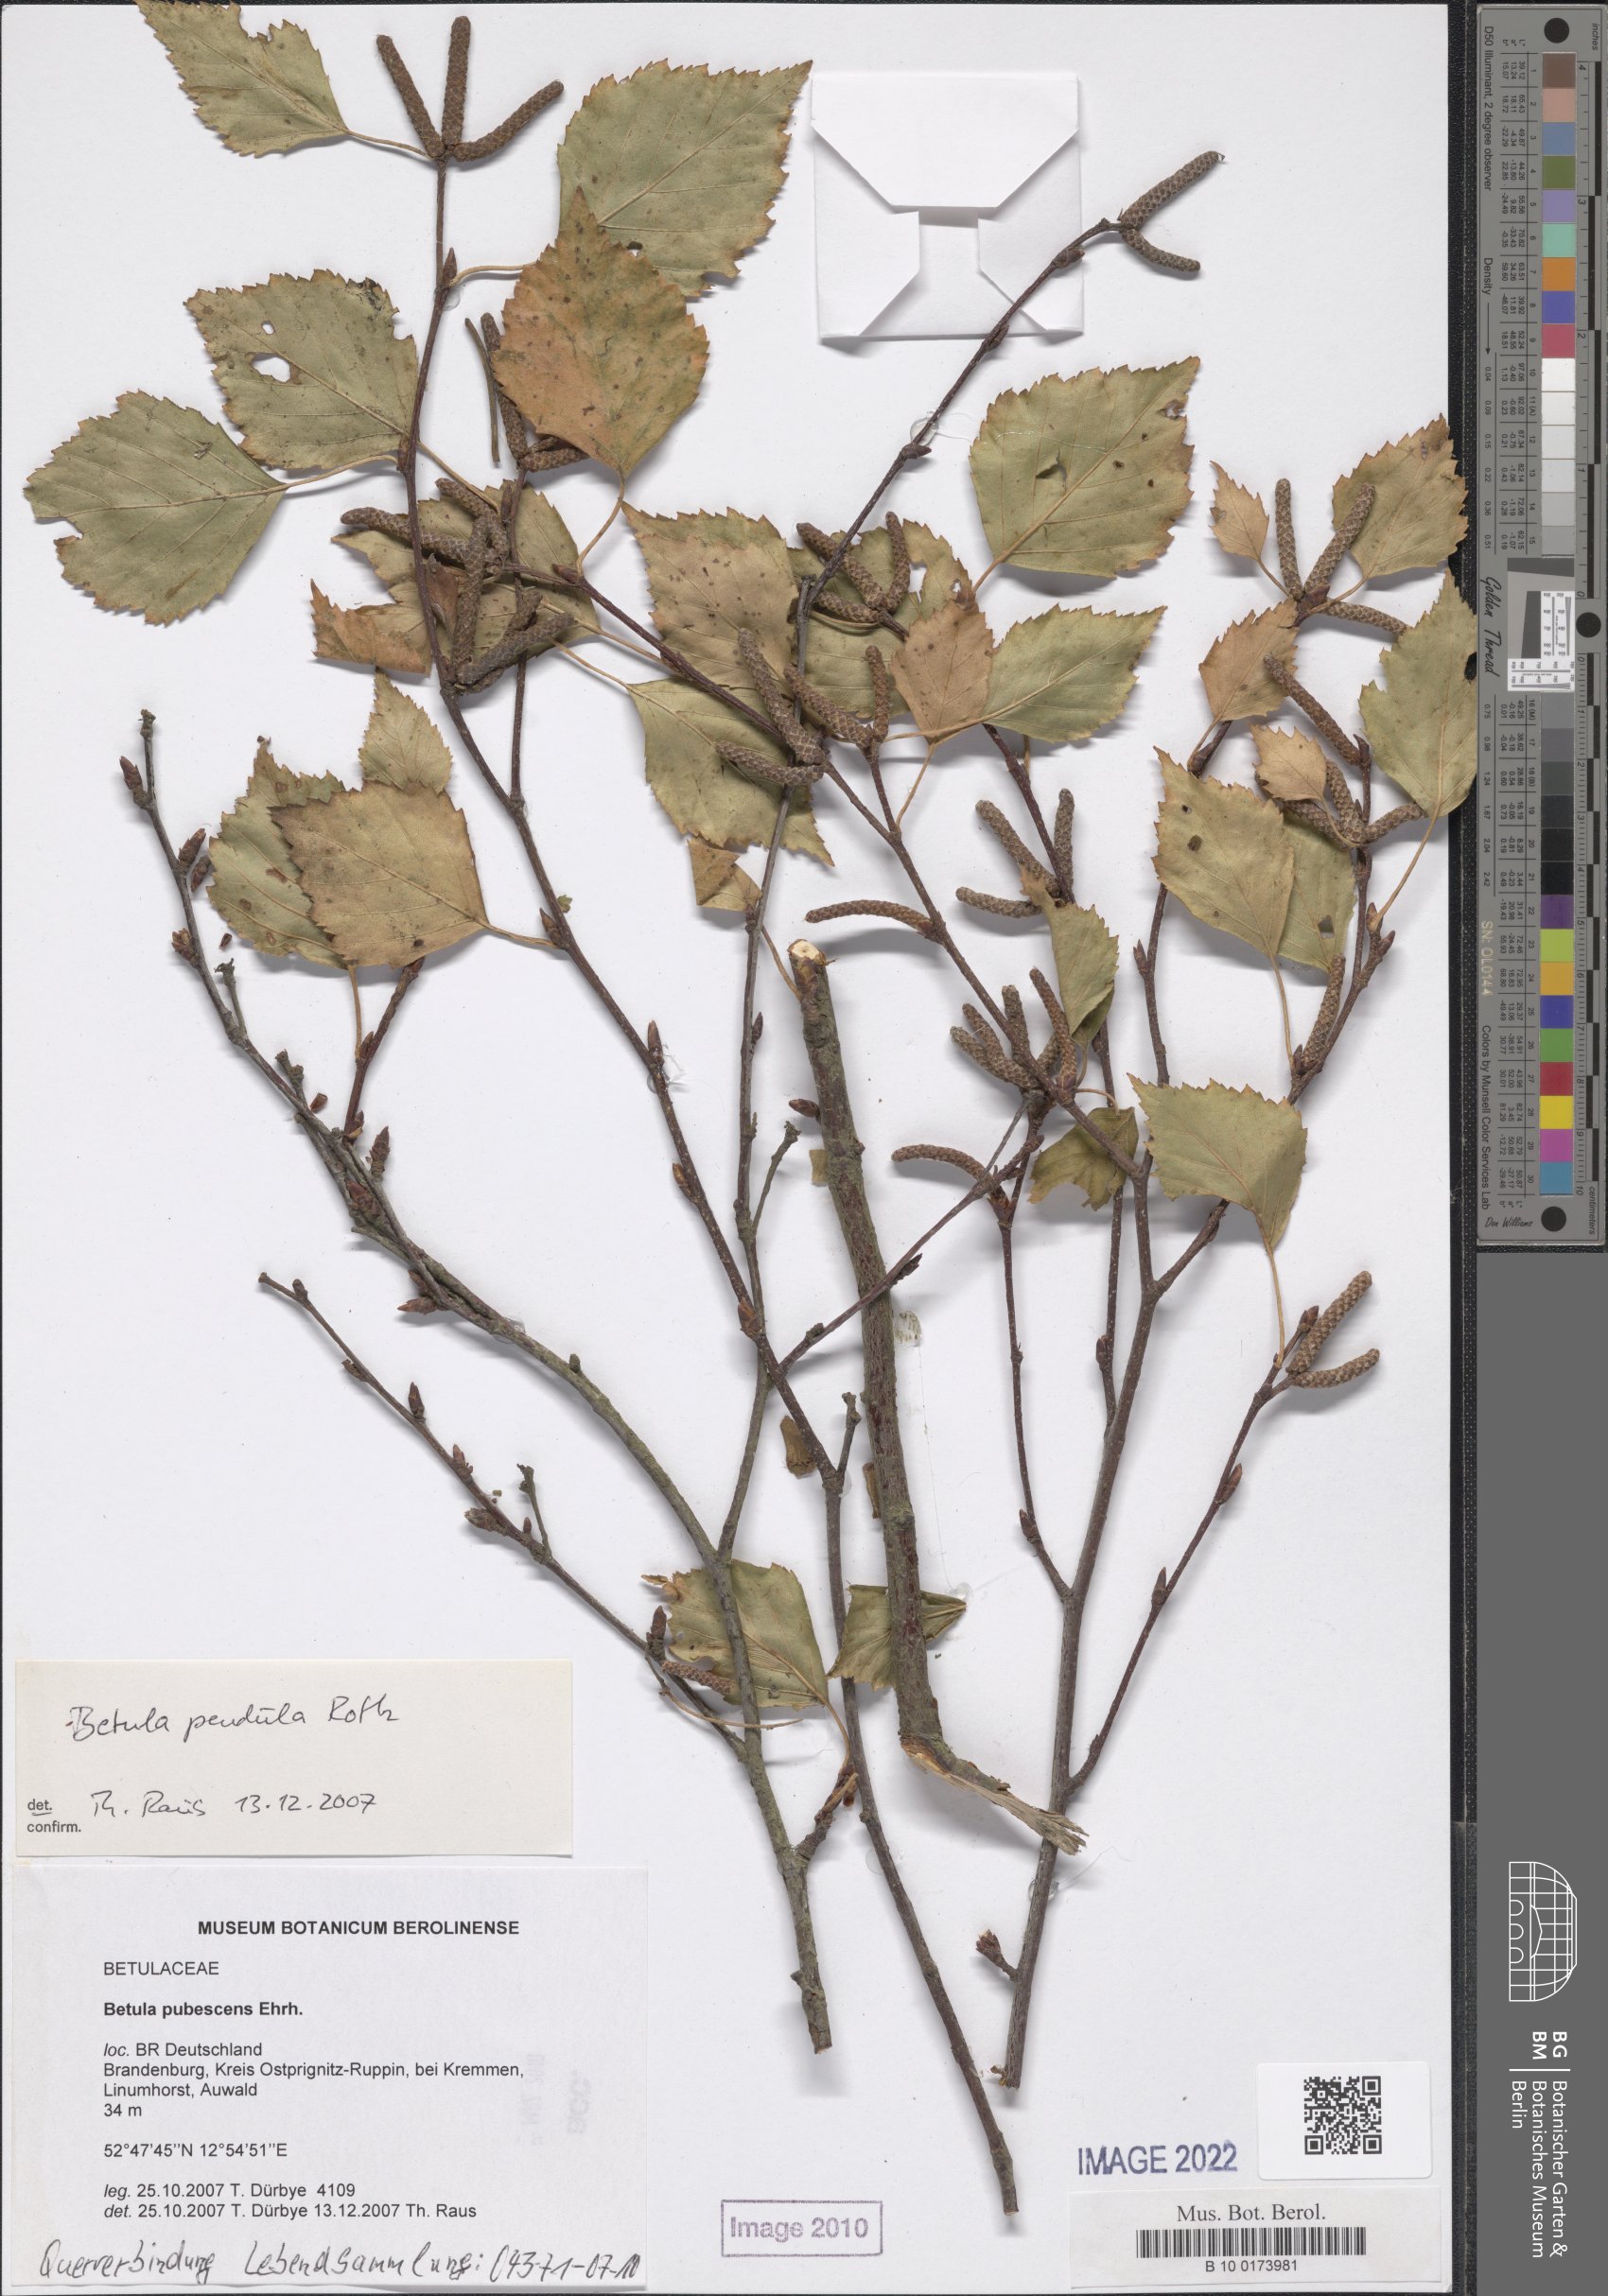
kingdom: Plantae
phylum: Tracheophyta
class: Magnoliopsida
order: Fagales
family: Betulaceae
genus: Betula
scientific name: Betula pubescens
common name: Downy birch
